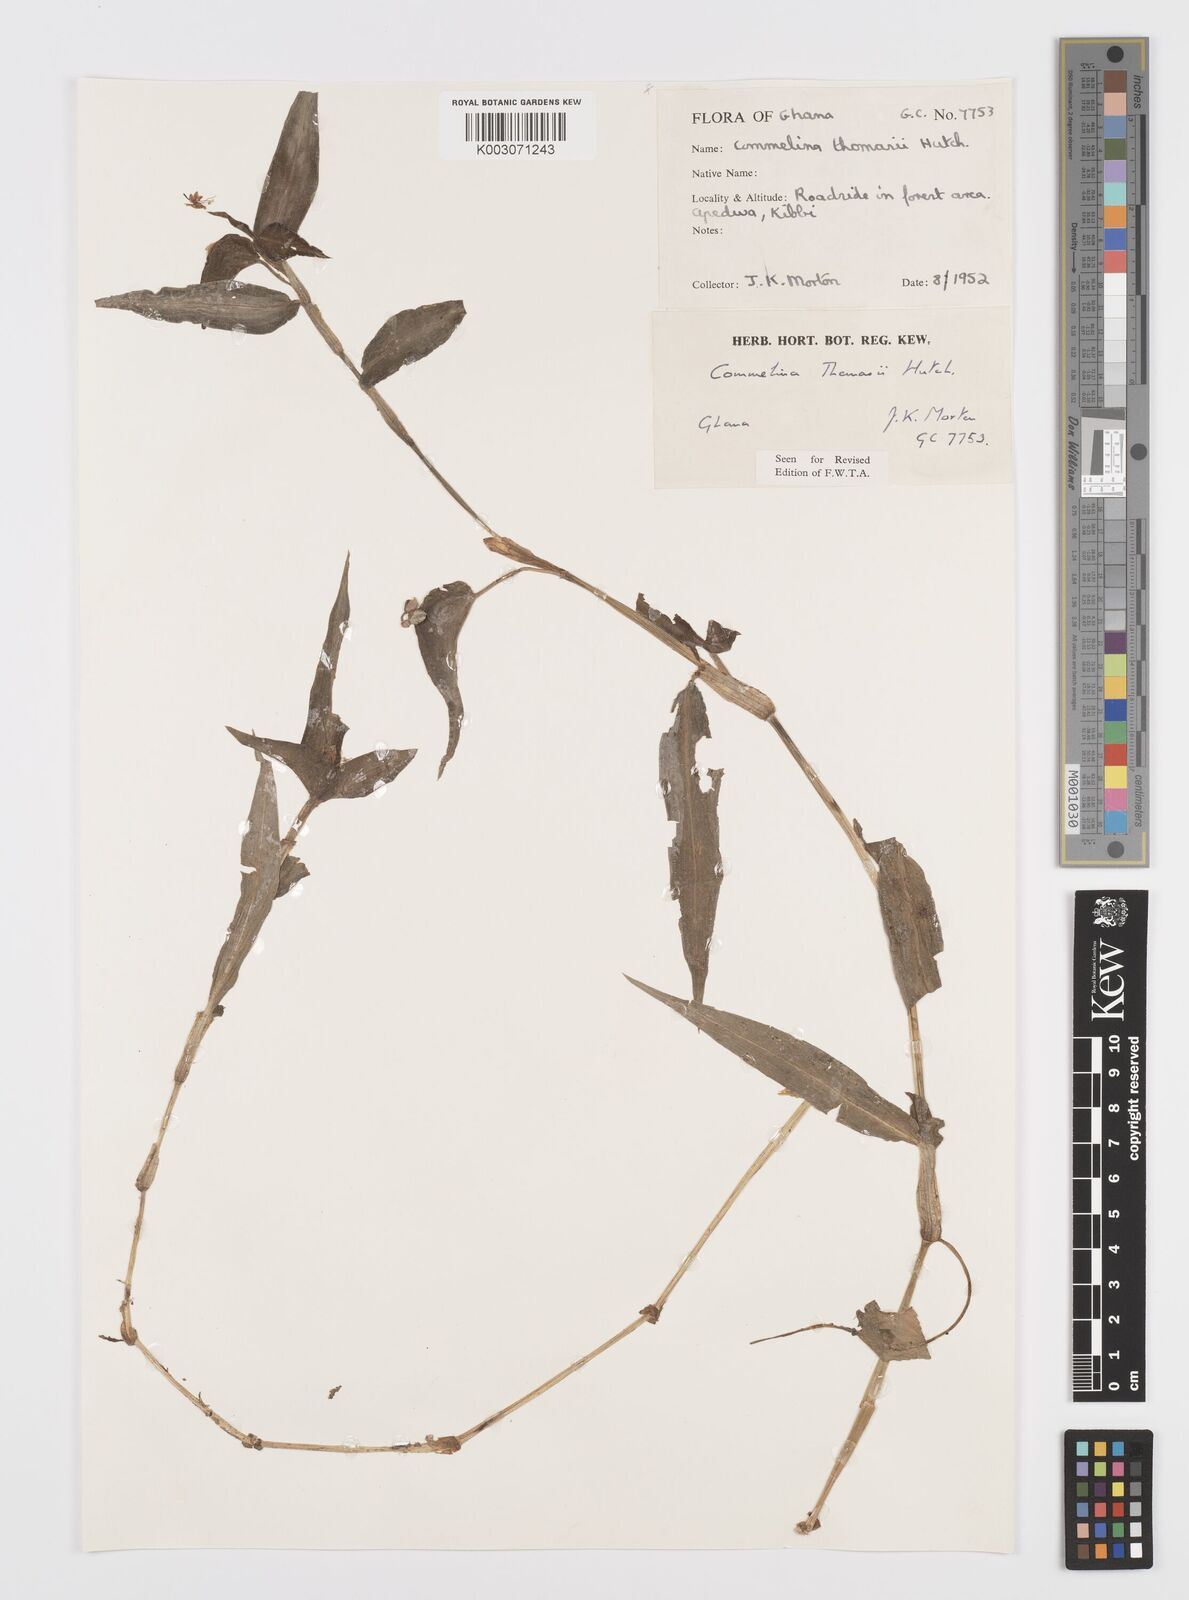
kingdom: Plantae
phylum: Tracheophyta
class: Liliopsida
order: Commelinales
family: Commelinaceae
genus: Commelina
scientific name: Commelina acutispatha
